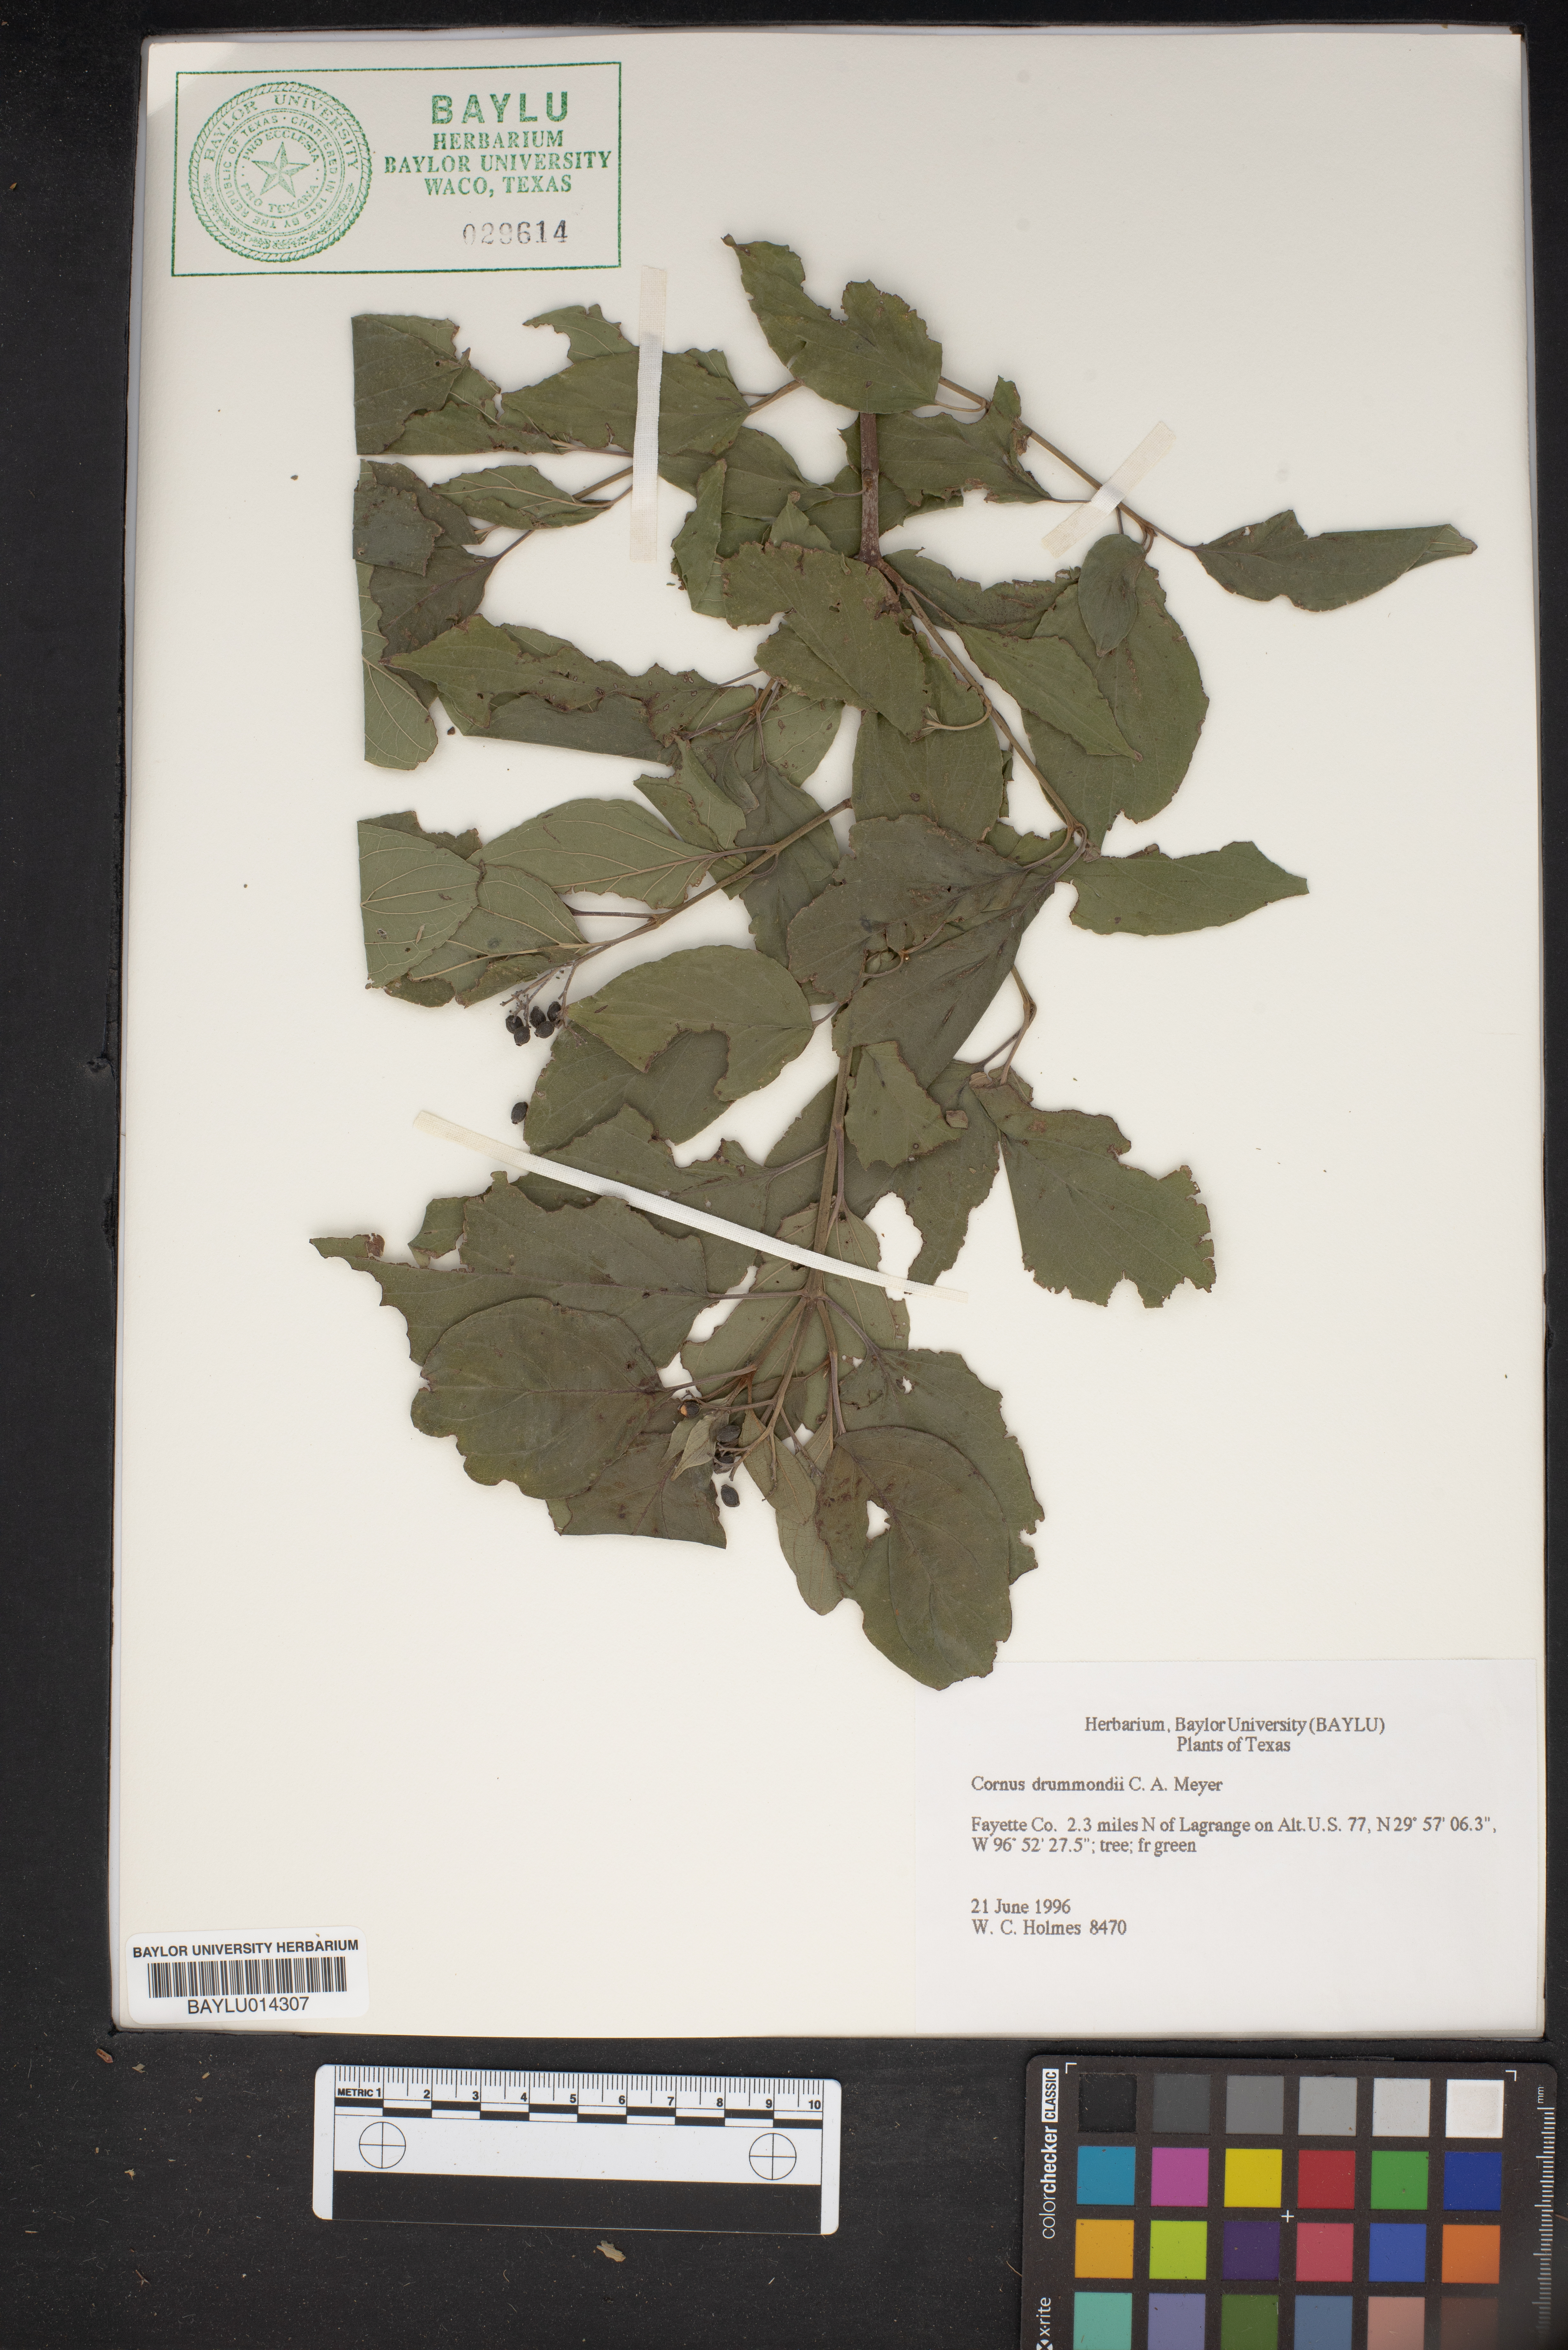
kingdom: Plantae
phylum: Tracheophyta
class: Magnoliopsida
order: Cornales
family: Cornaceae
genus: Cornus
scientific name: Cornus drummondii
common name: Rough-leaf dogwood
